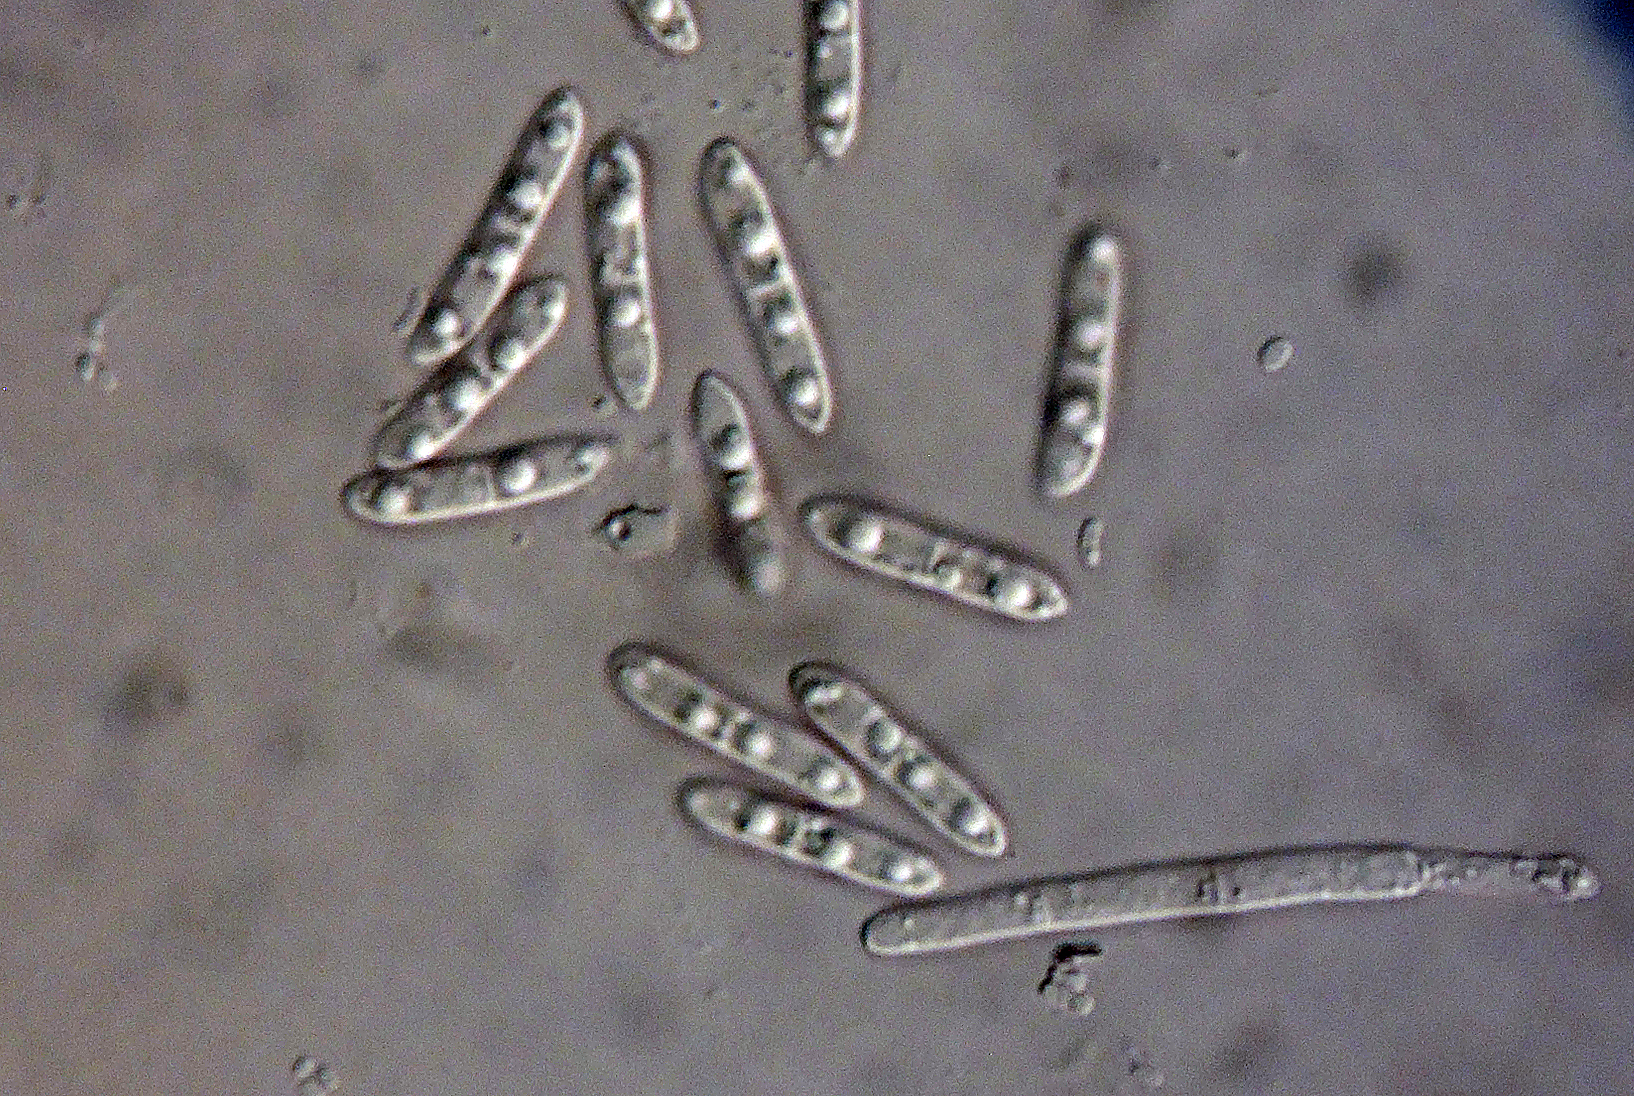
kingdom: Fungi
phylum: Ascomycota
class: Sordariomycetes
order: Hypocreales
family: Nectriaceae
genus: Cylindrocarpon
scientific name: Cylindrocarpon didymum
